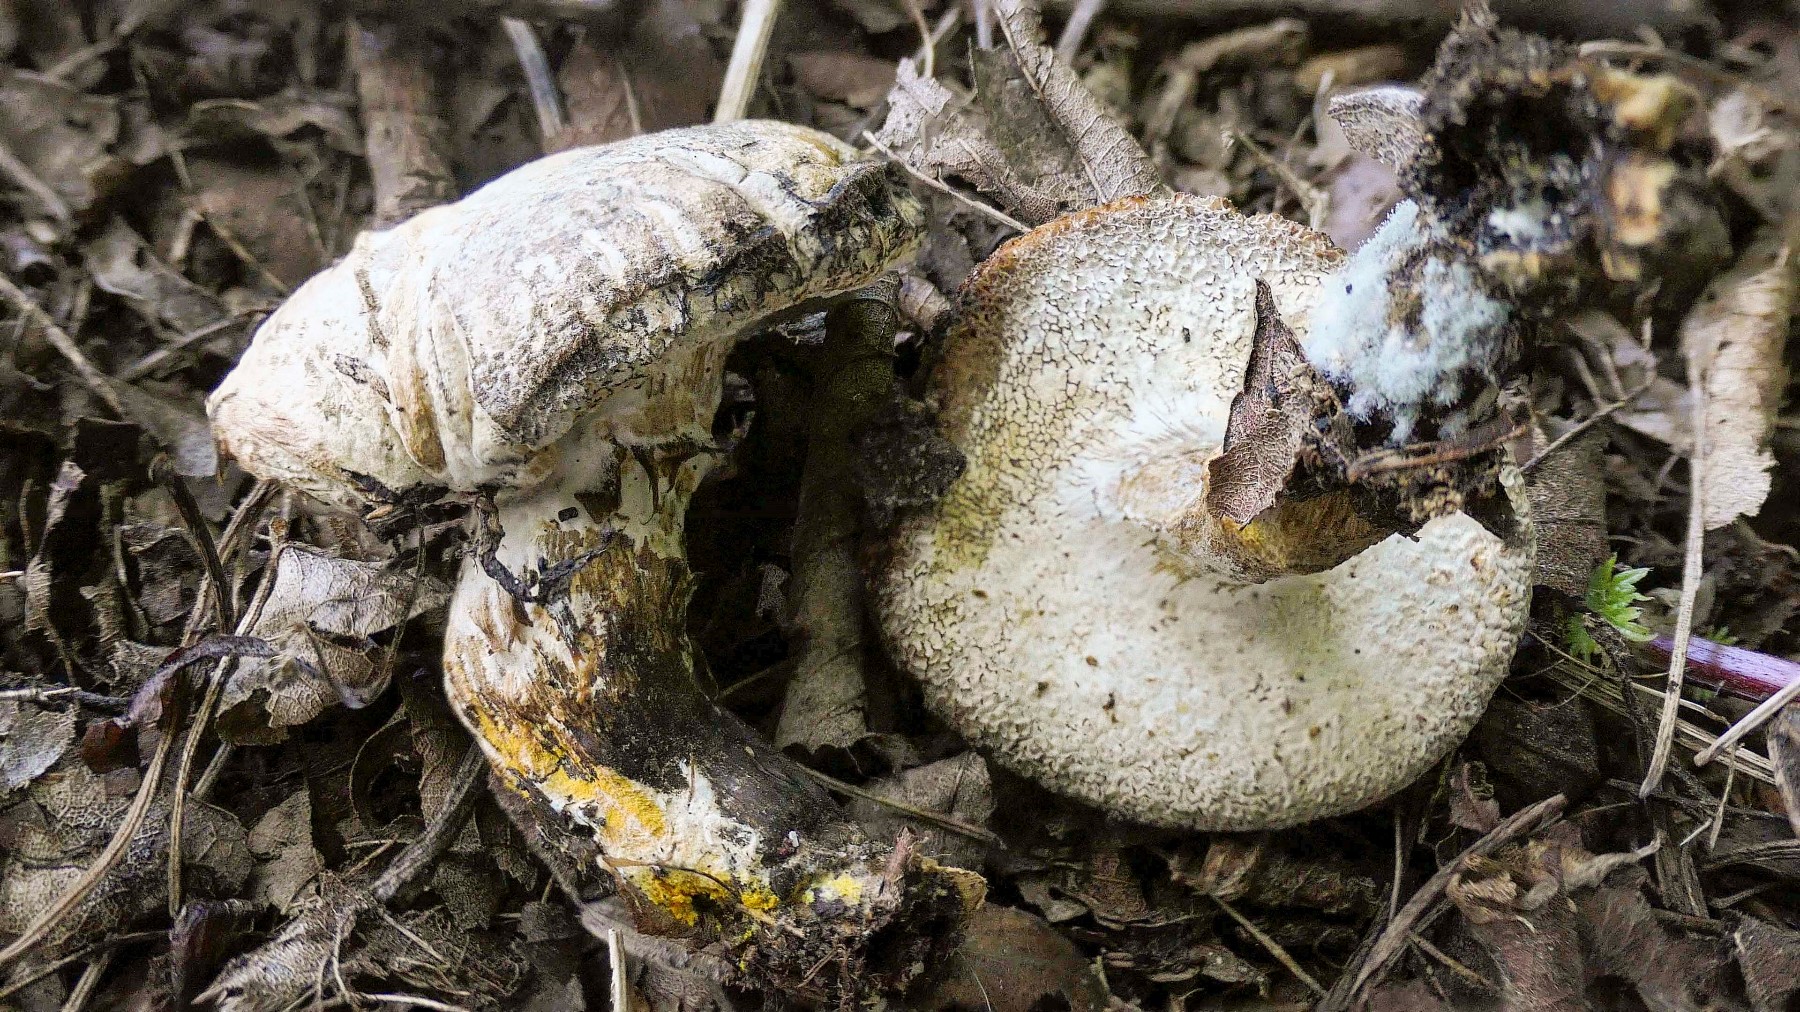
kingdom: Fungi
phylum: Ascomycota
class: Sordariomycetes
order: Hypocreales
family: Hypocreaceae
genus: Hypomyces
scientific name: Hypomyces microspermus
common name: dværgrørhat-snylteskorpe
